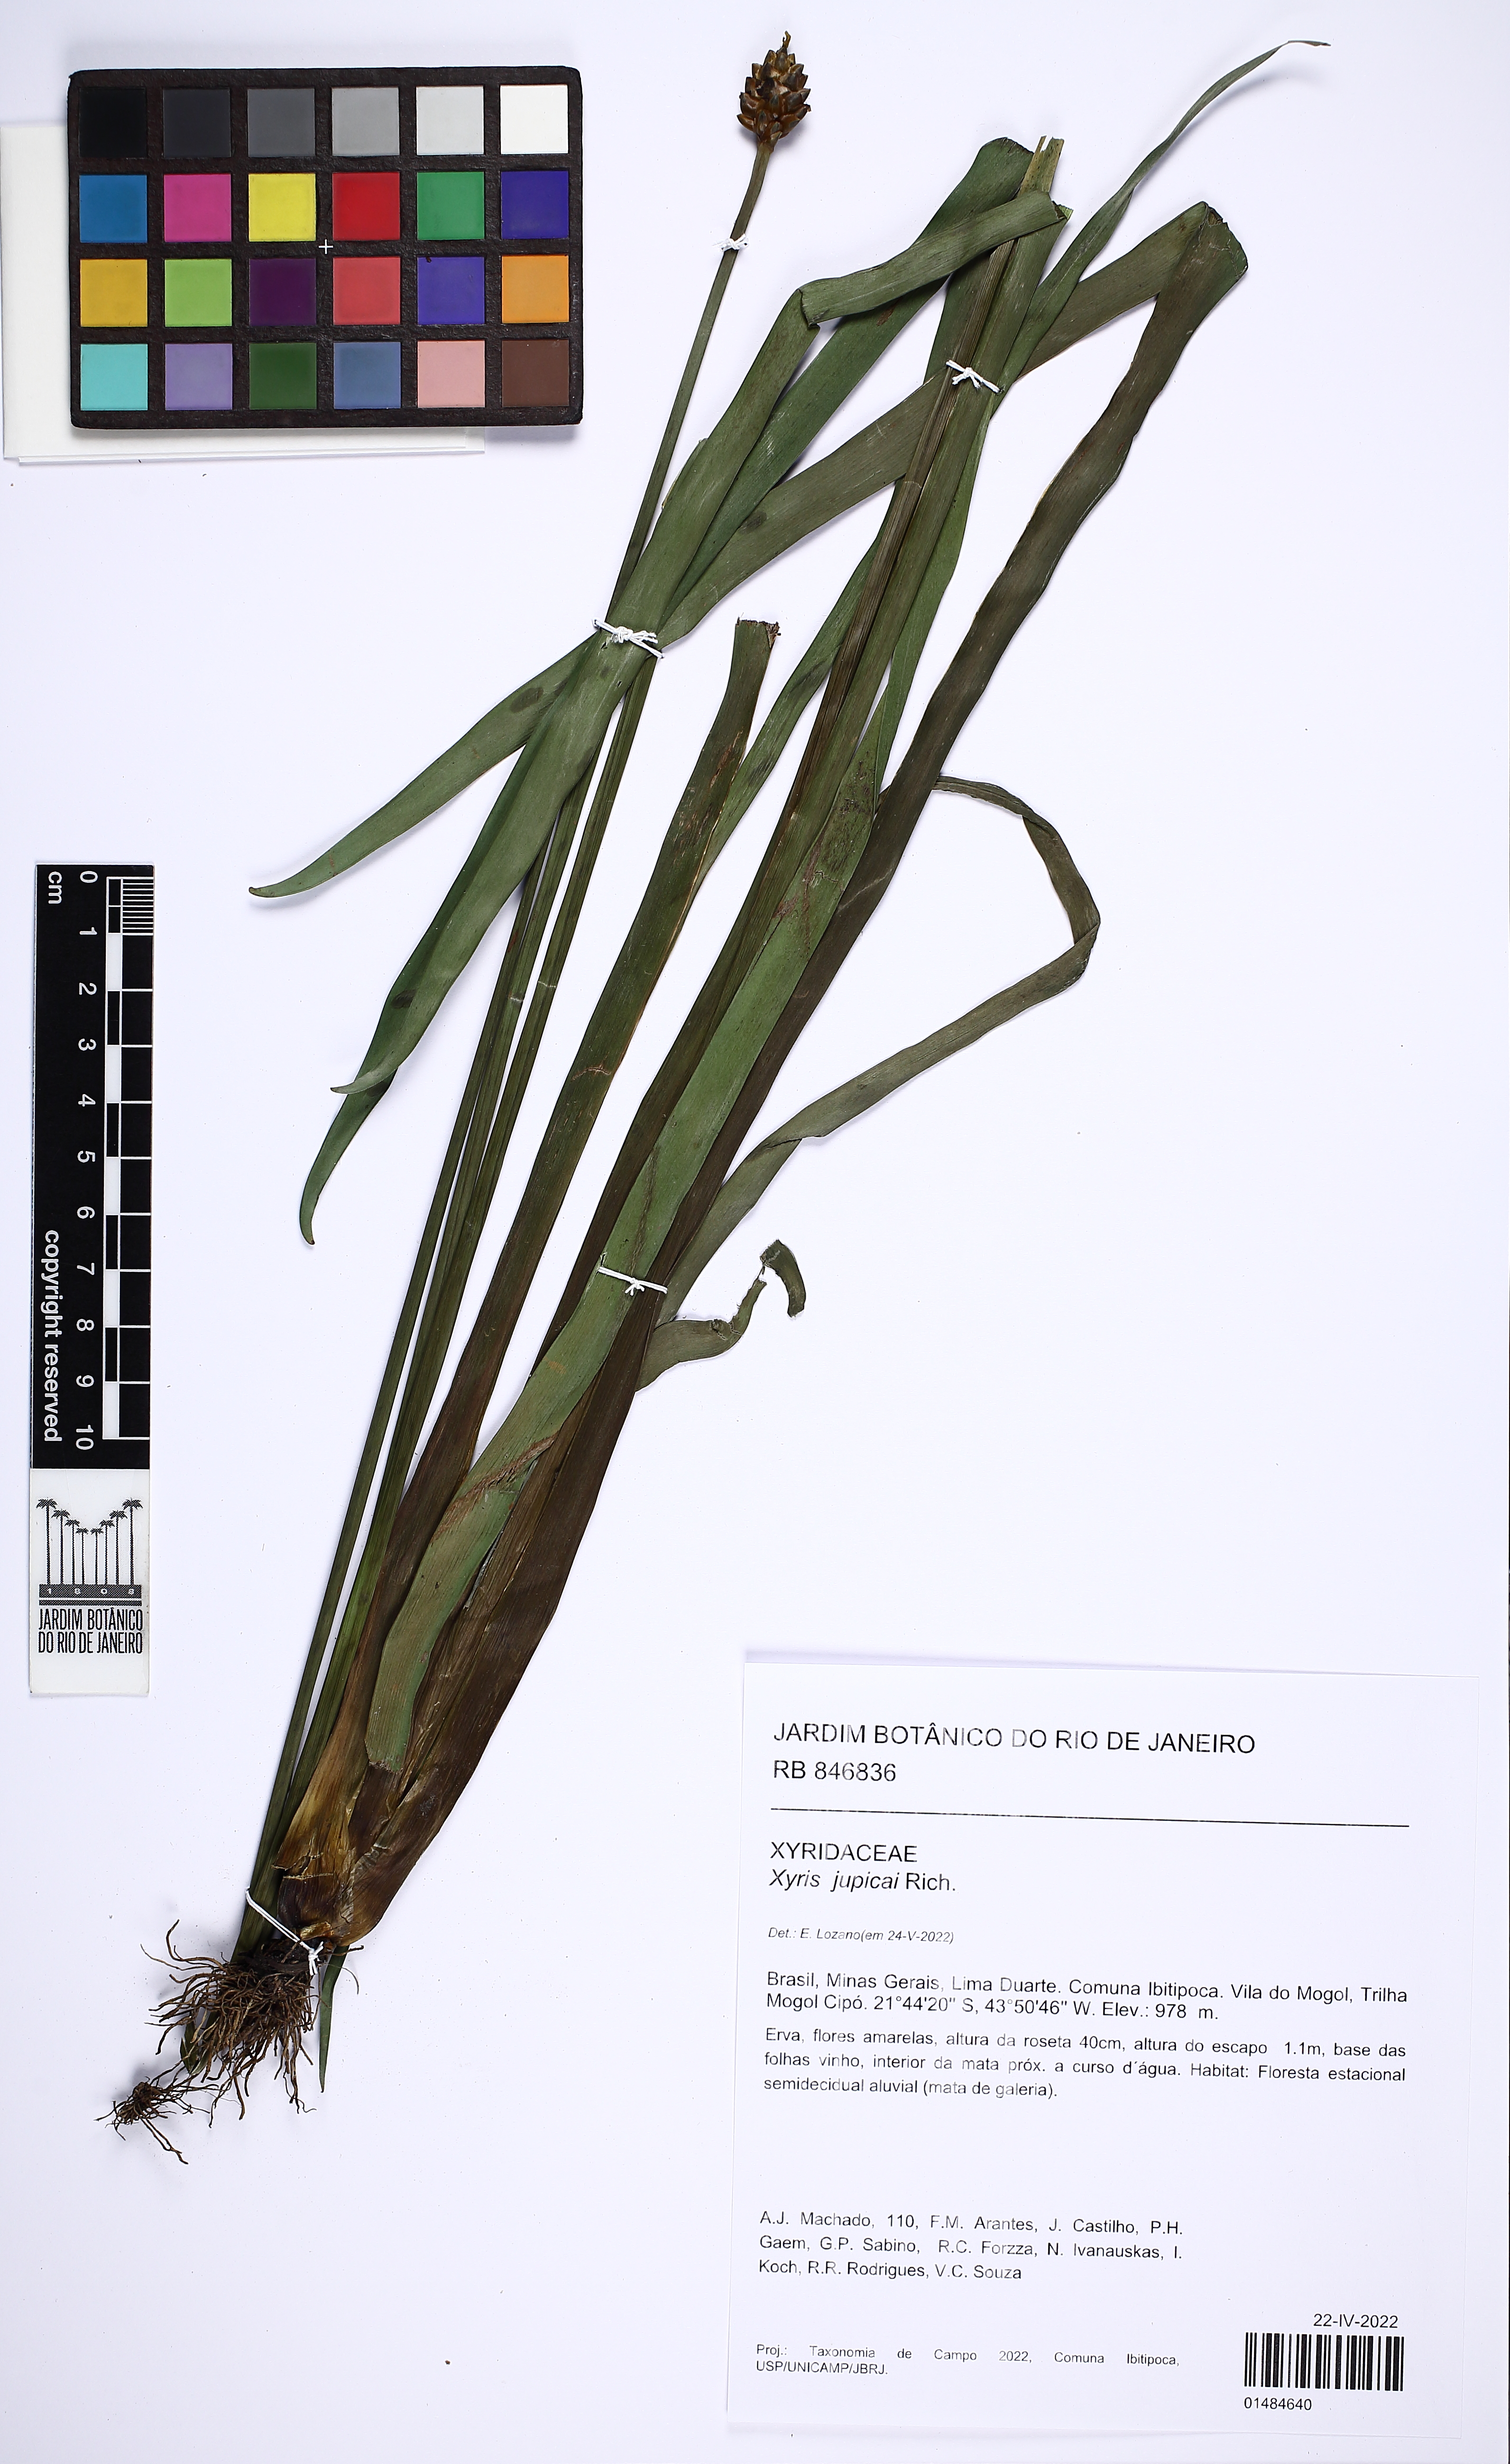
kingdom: Plantae
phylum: Tracheophyta
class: Liliopsida
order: Poales
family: Xyridaceae
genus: Xyris
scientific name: Xyris jupicai
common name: Richard's yelloweyed grass
